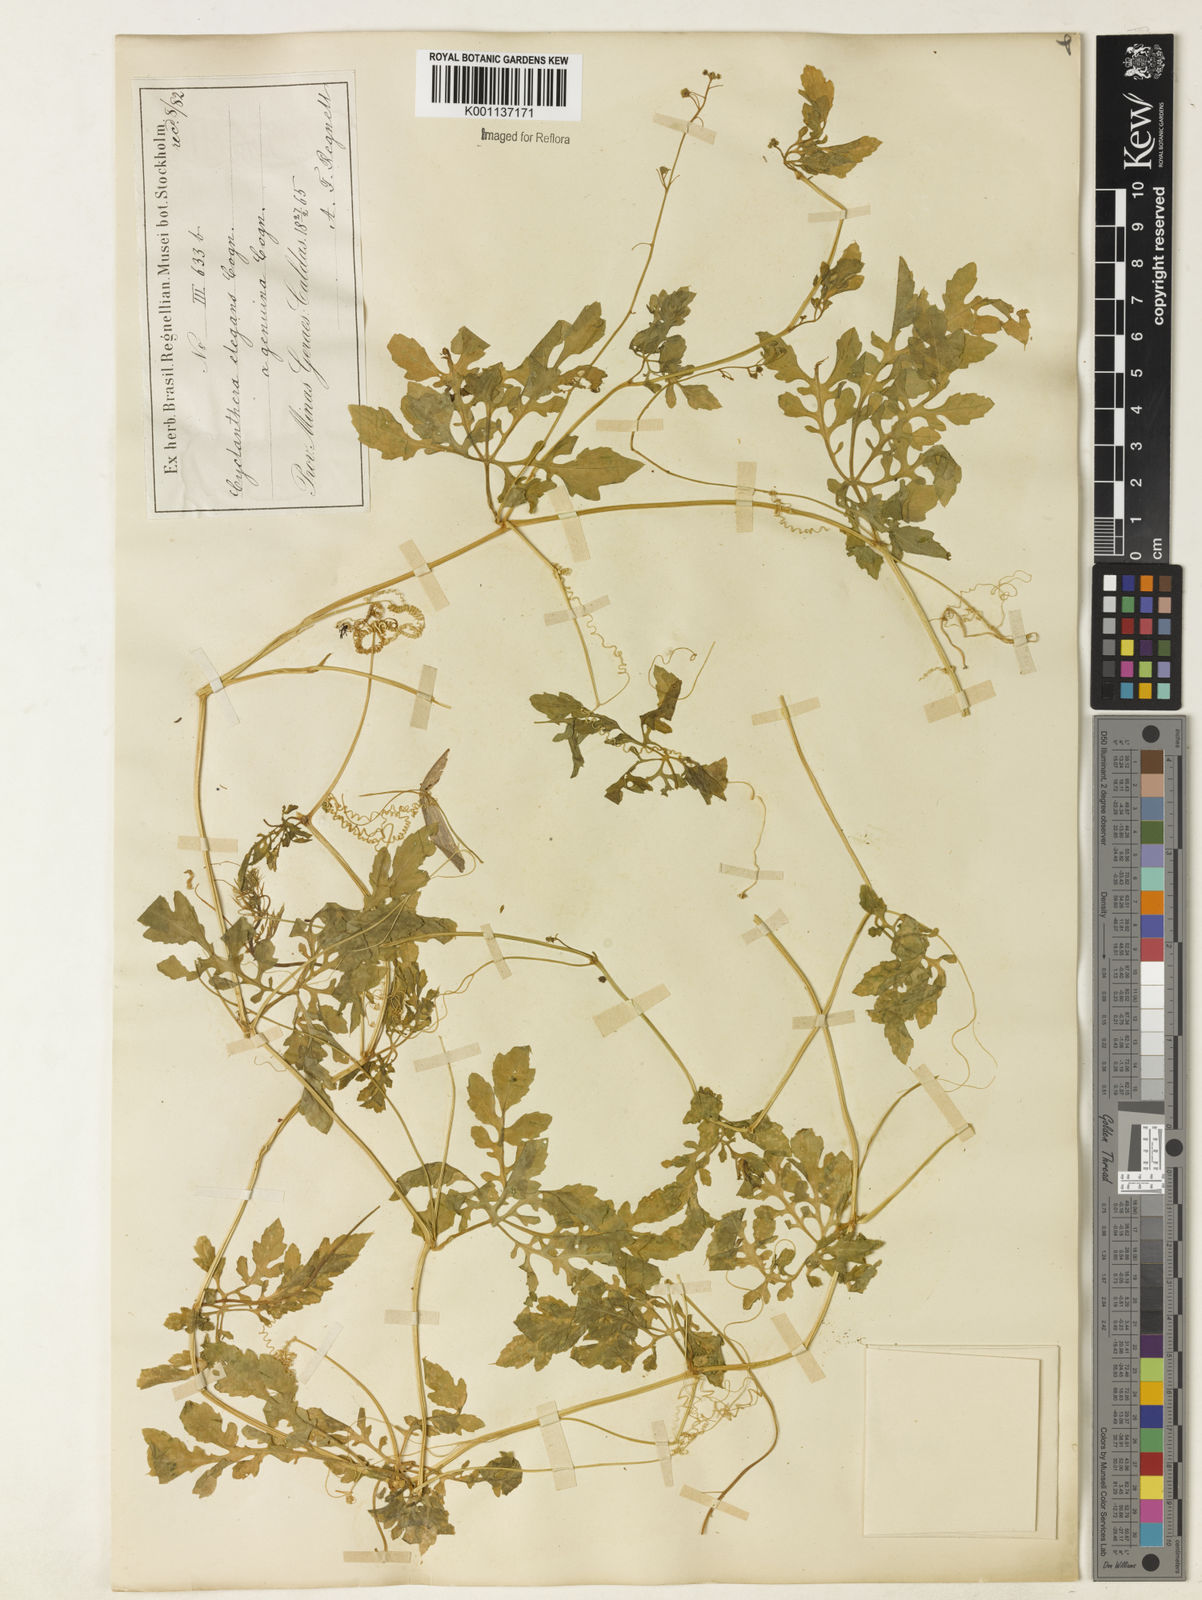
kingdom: Plantae
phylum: Tracheophyta
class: Magnoliopsida
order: Cucurbitales
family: Cucurbitaceae
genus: Cyclanthera
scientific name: Cyclanthera tenuisepala
